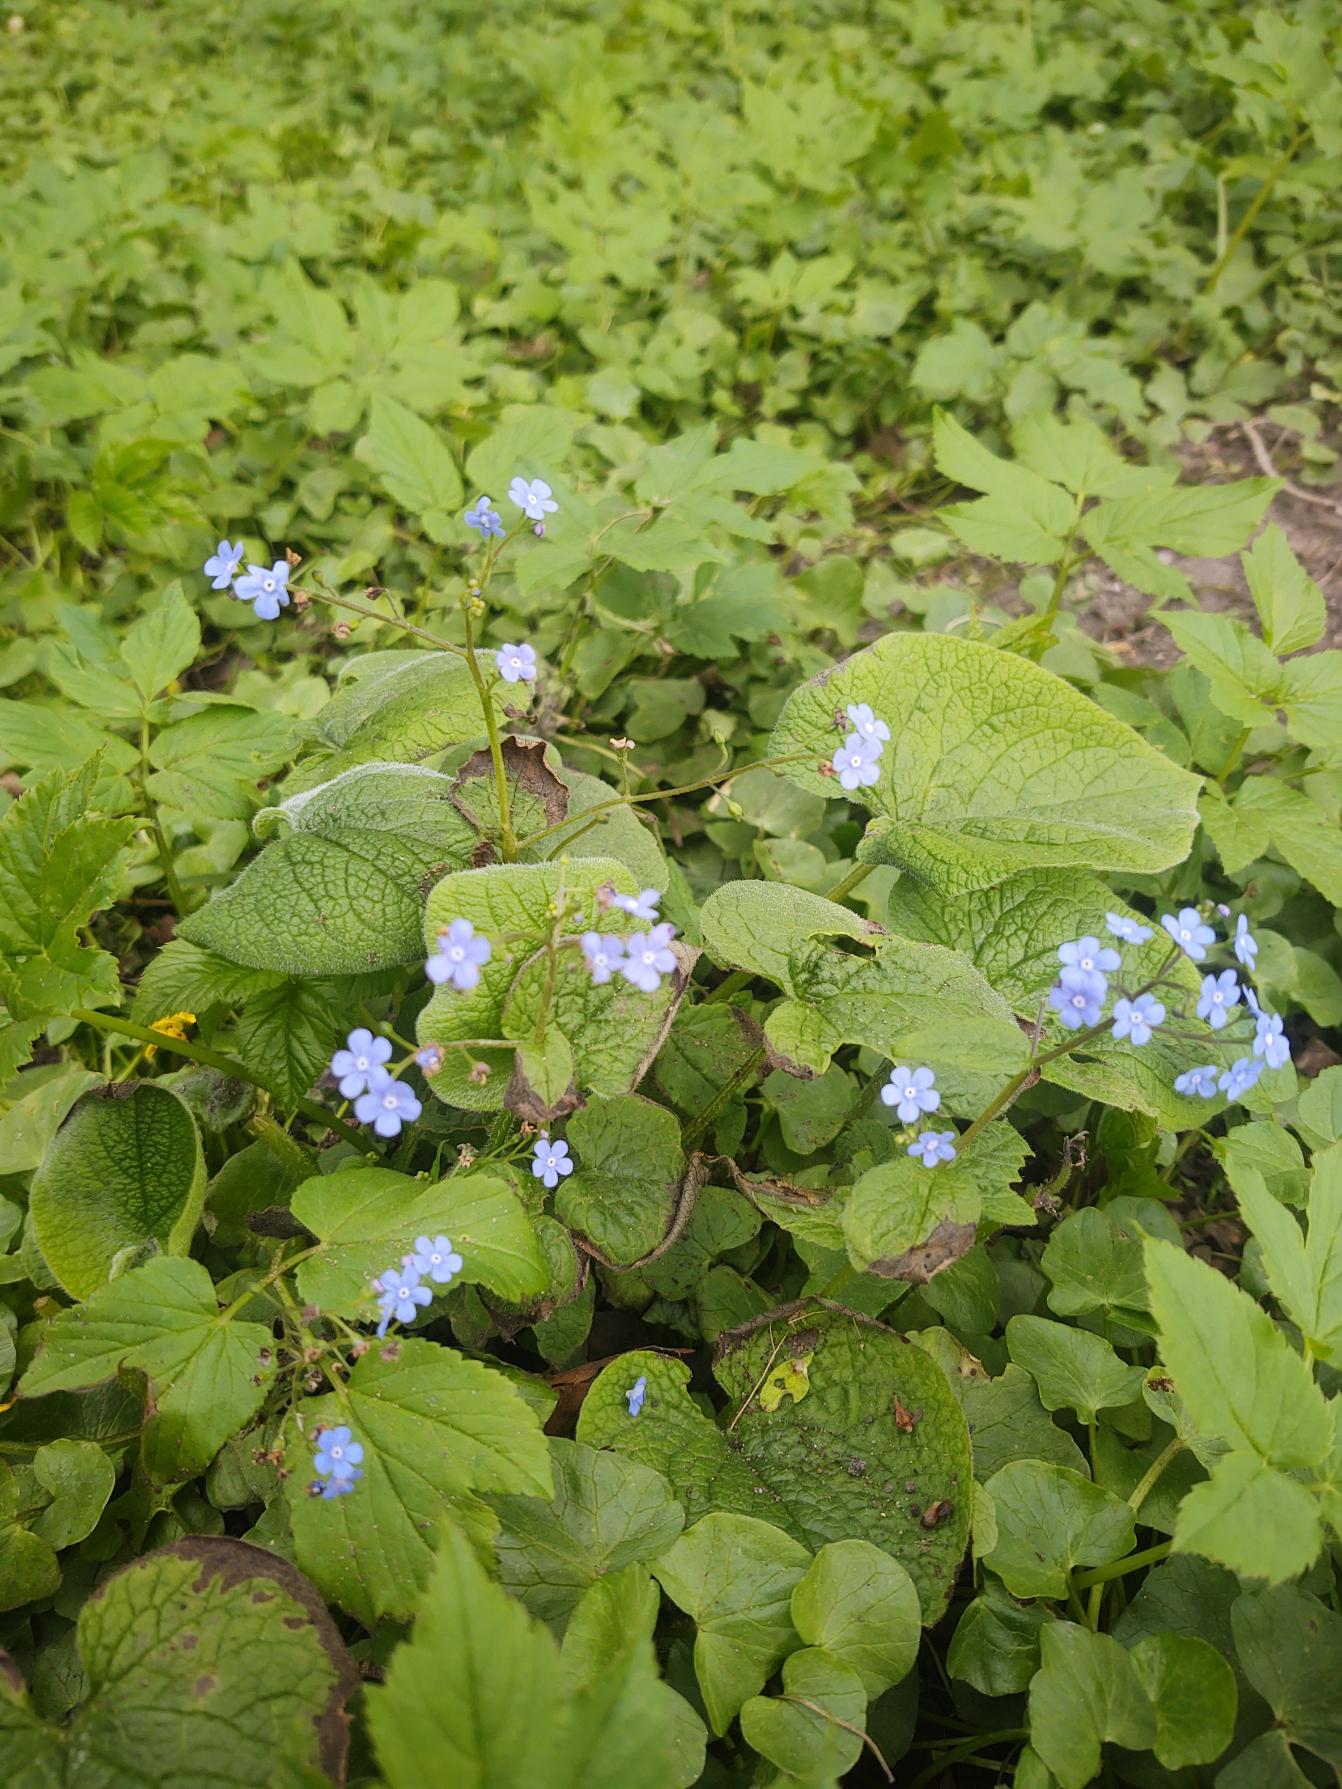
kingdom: Plantae
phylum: Tracheophyta
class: Magnoliopsida
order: Boraginales
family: Boraginaceae
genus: Brunnera
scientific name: Brunnera macrophylla
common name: Kærmindesøster
